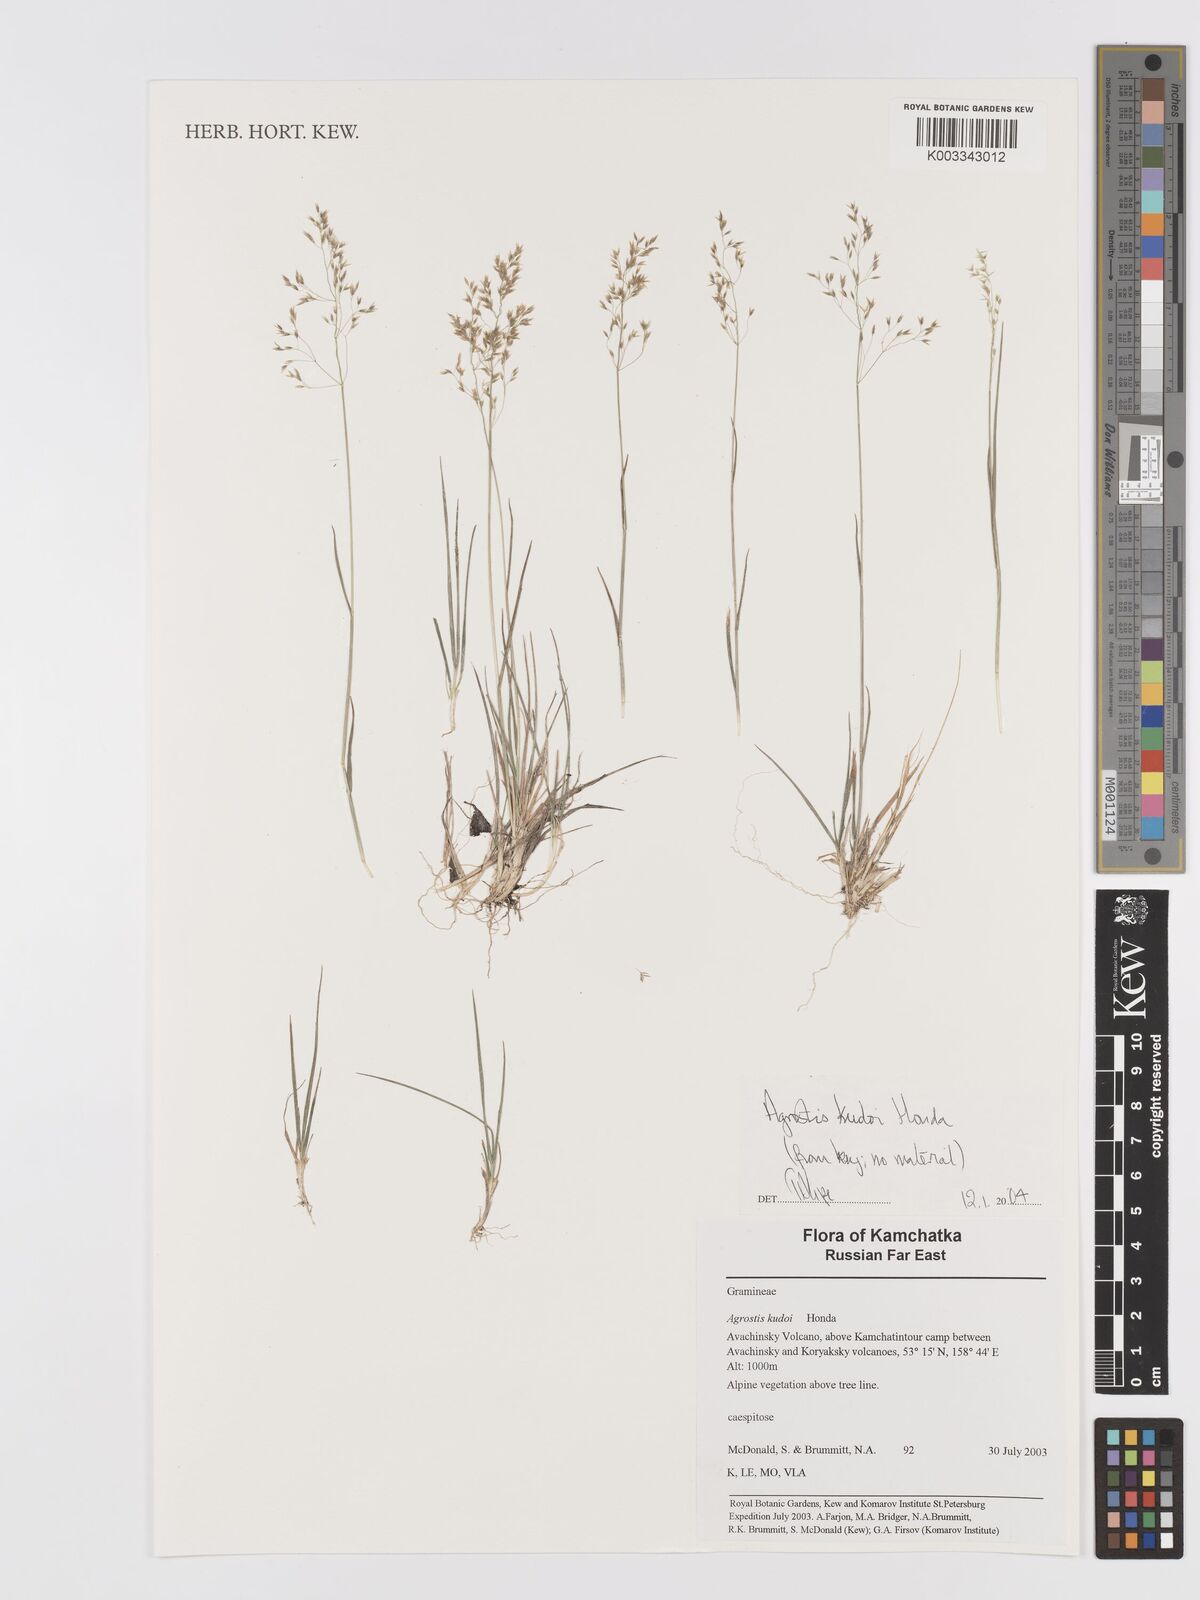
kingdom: Plantae
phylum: Tracheophyta
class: Liliopsida
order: Poales
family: Poaceae
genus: Agrostis
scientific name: Agrostis vinealis
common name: Brown bent
